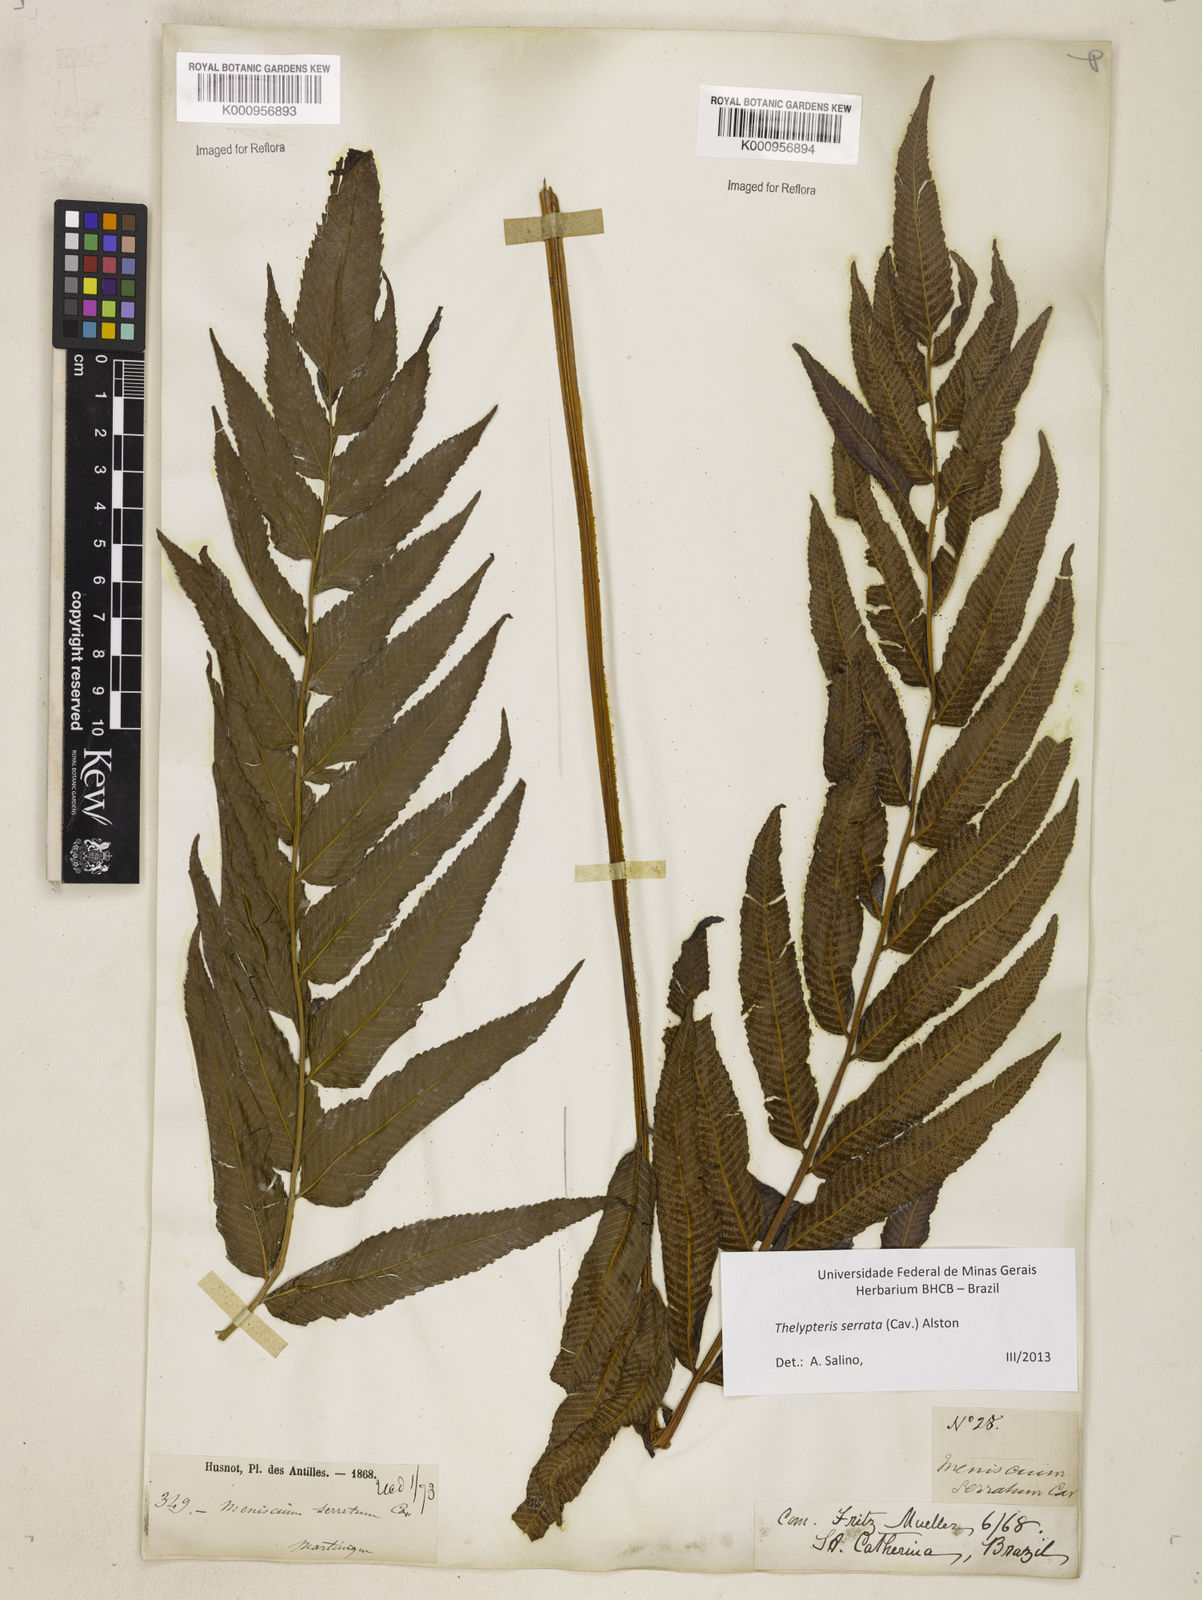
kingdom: Plantae
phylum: Tracheophyta
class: Polypodiopsida
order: Polypodiales
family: Thelypteridaceae
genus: Meniscium
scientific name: Meniscium serratum
